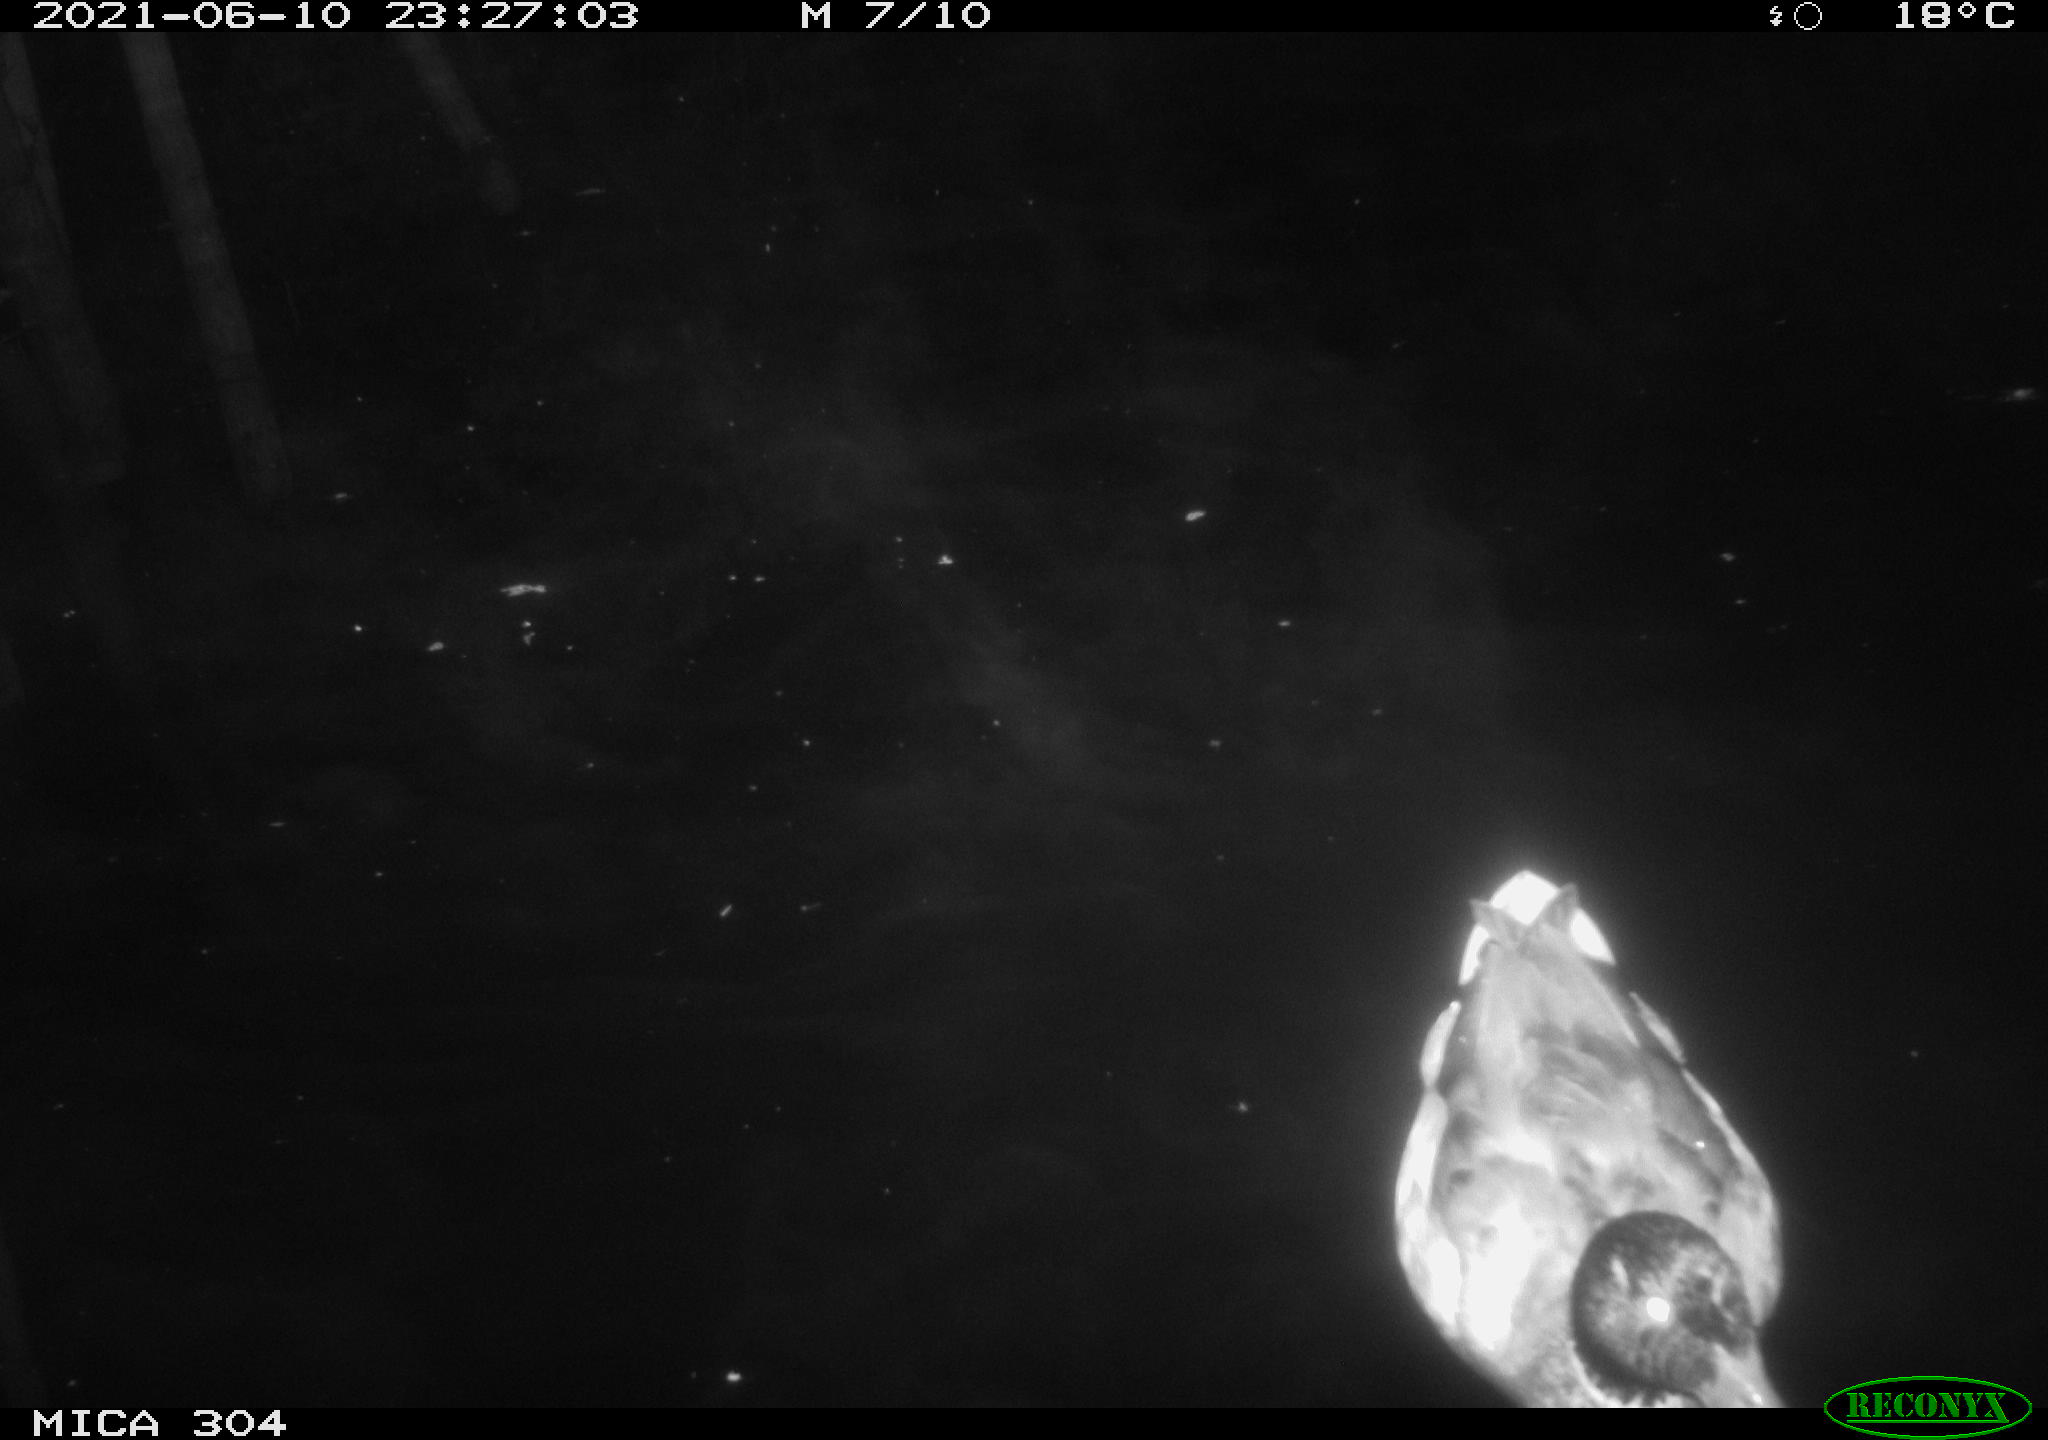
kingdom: Animalia
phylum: Chordata
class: Aves
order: Anseriformes
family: Anatidae
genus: Anas
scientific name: Anas platyrhynchos
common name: Mallard
